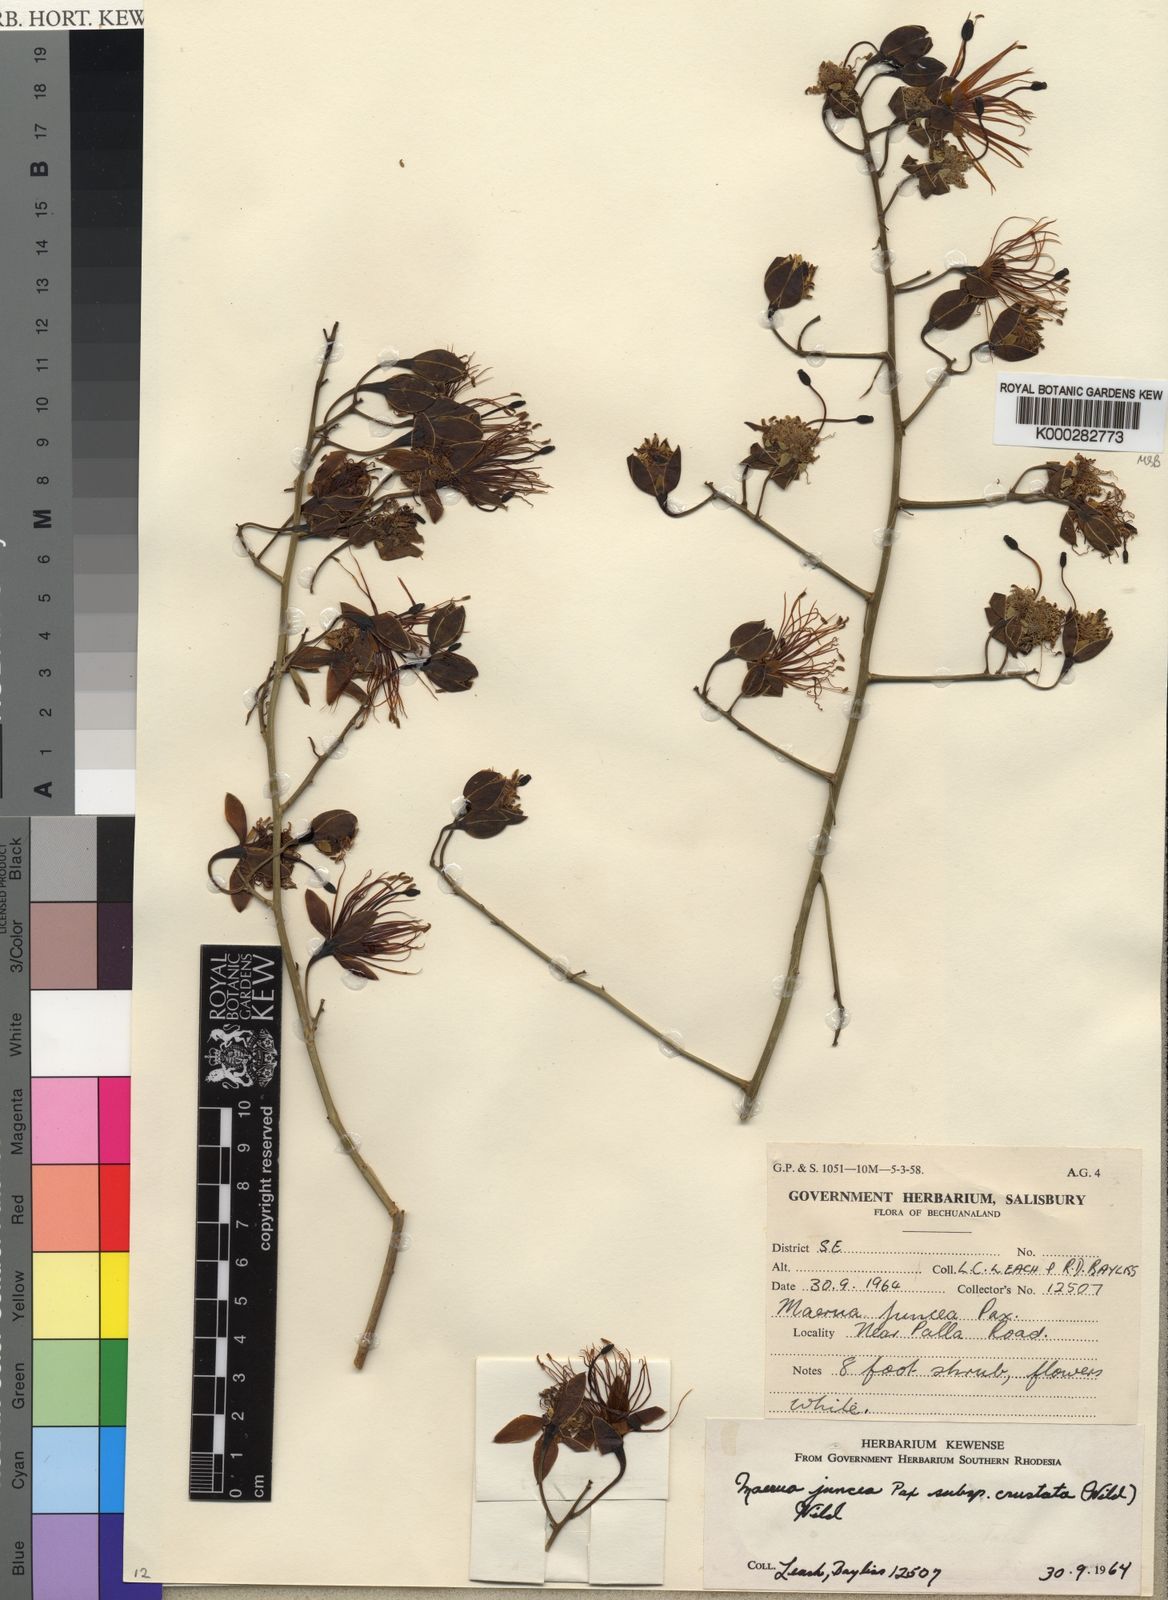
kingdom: Plantae
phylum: Tracheophyta
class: Magnoliopsida
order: Brassicales
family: Capparaceae
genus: Maerua
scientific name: Maerua juncea
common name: Rough-skinned bush cherry
